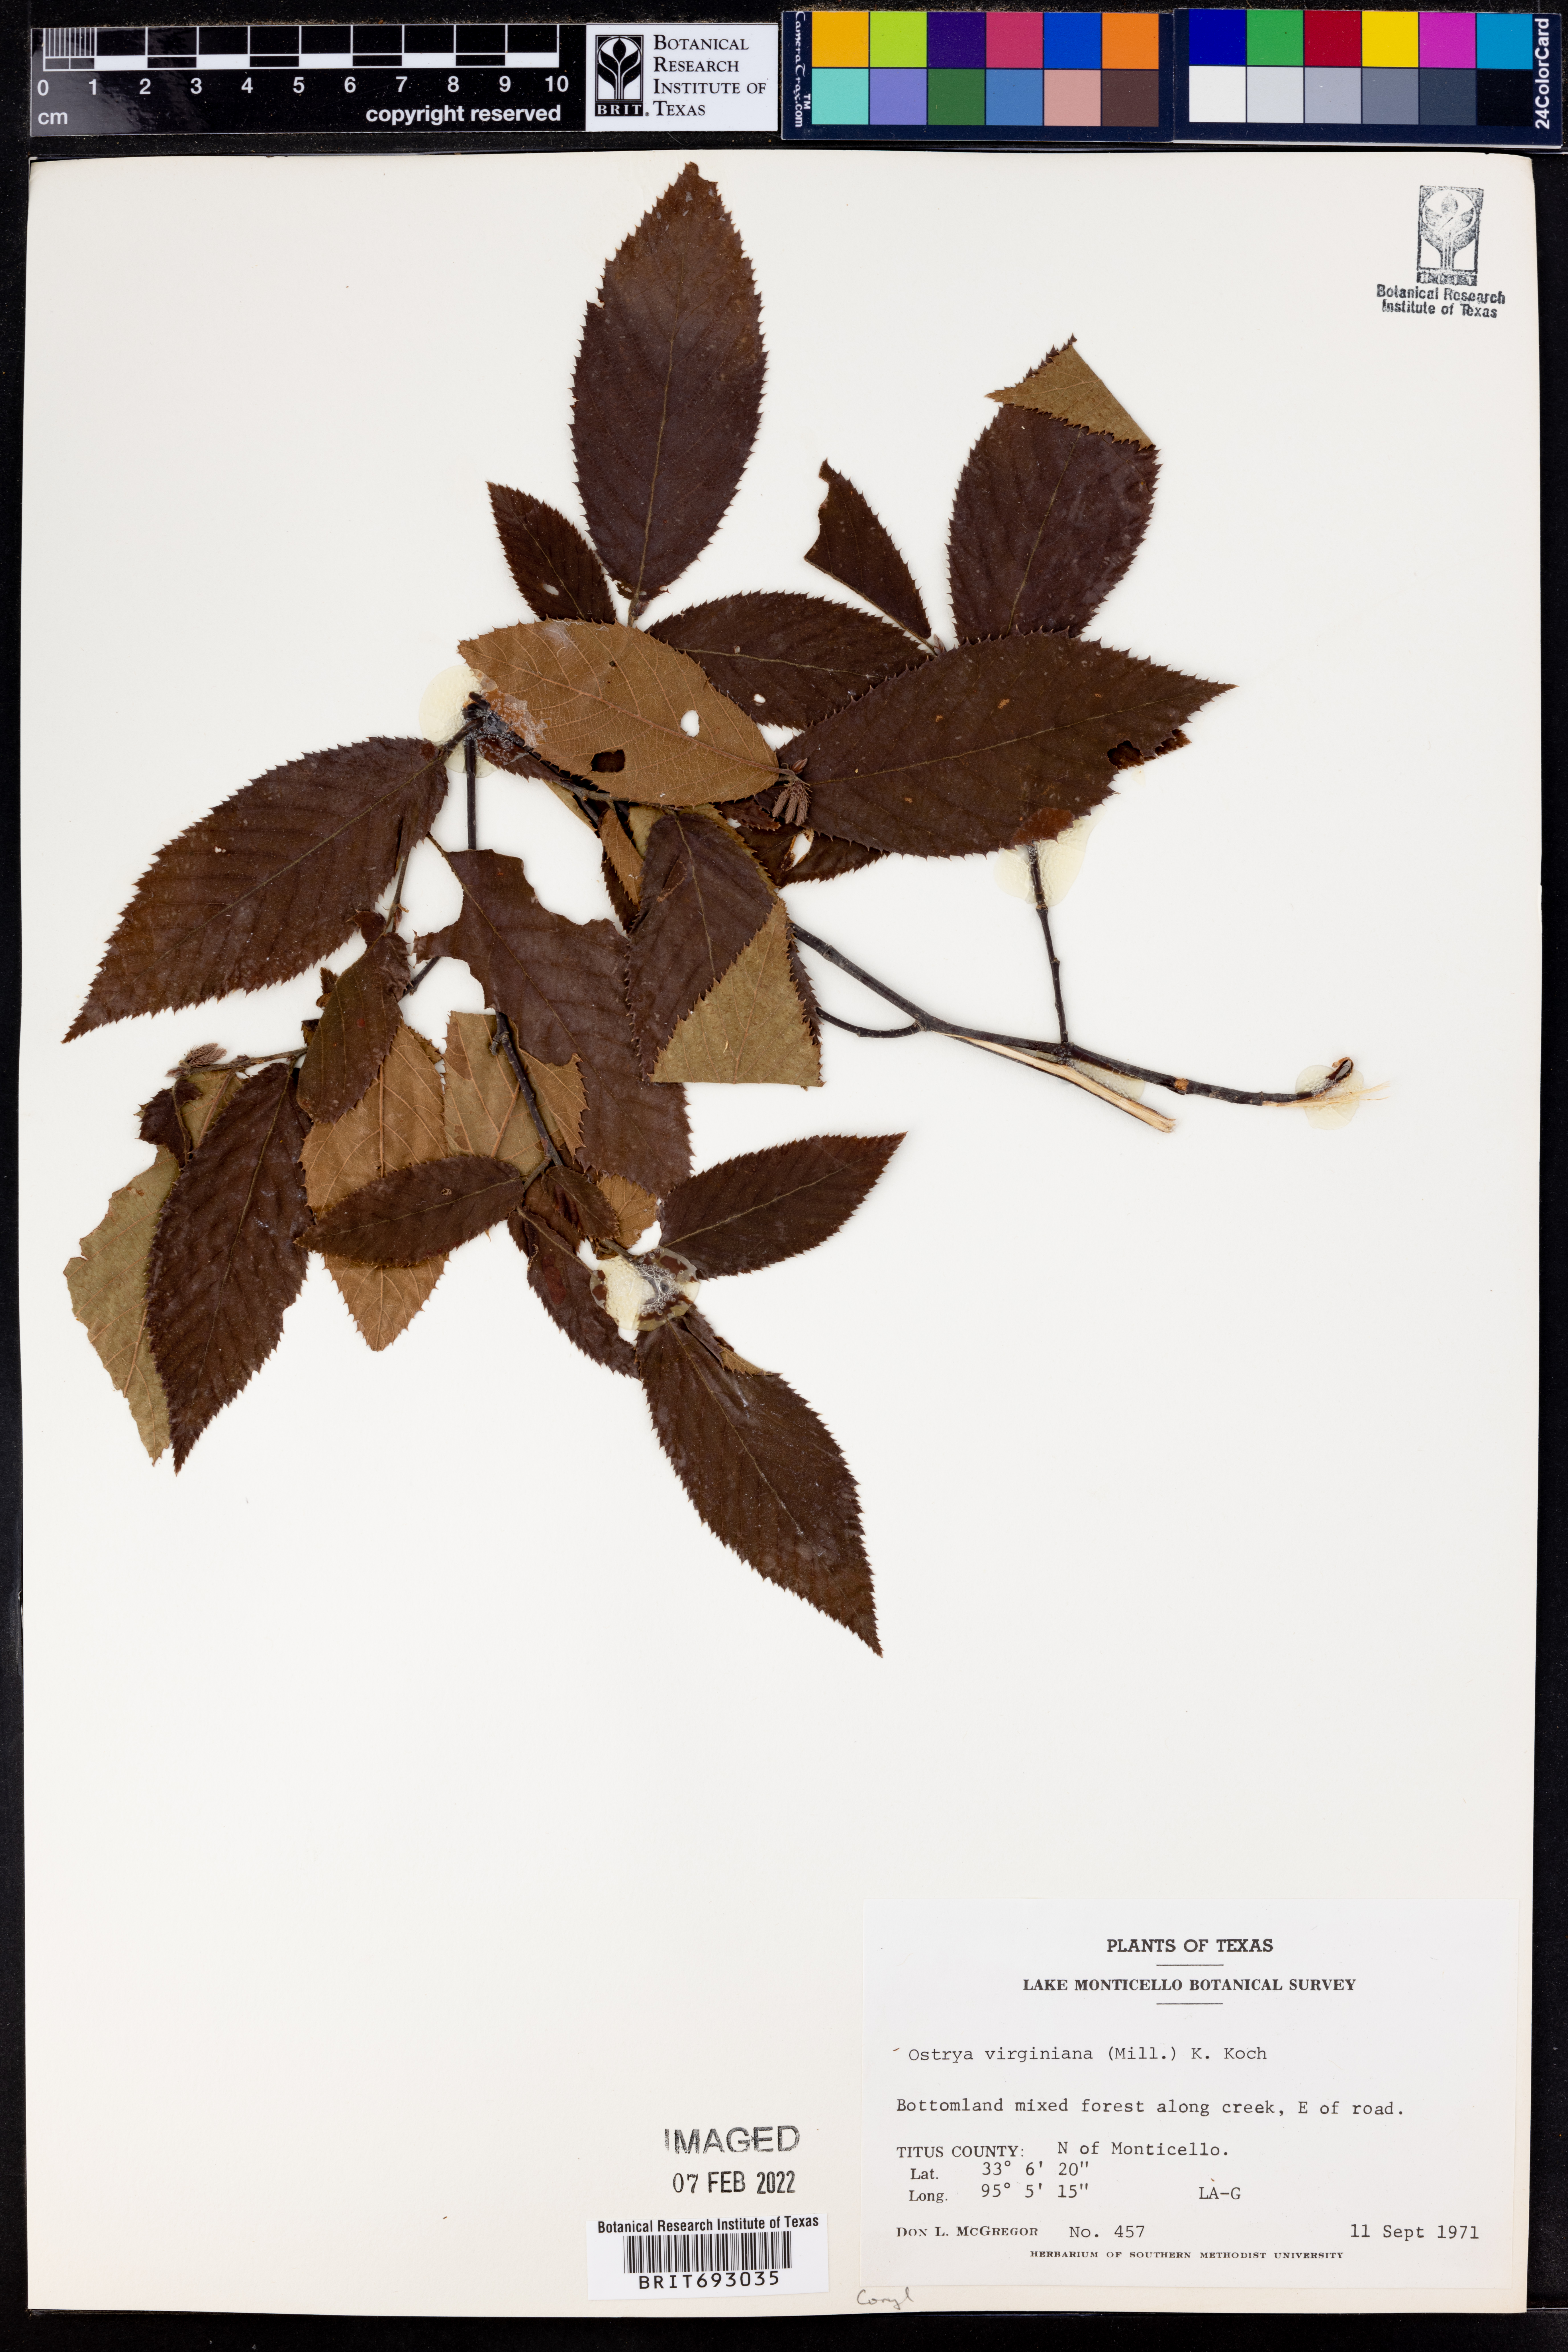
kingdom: Plantae
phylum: Tracheophyta
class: Magnoliopsida
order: Fagales
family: Betulaceae
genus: Ostrya
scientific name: Ostrya virginiana
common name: Ironwood
